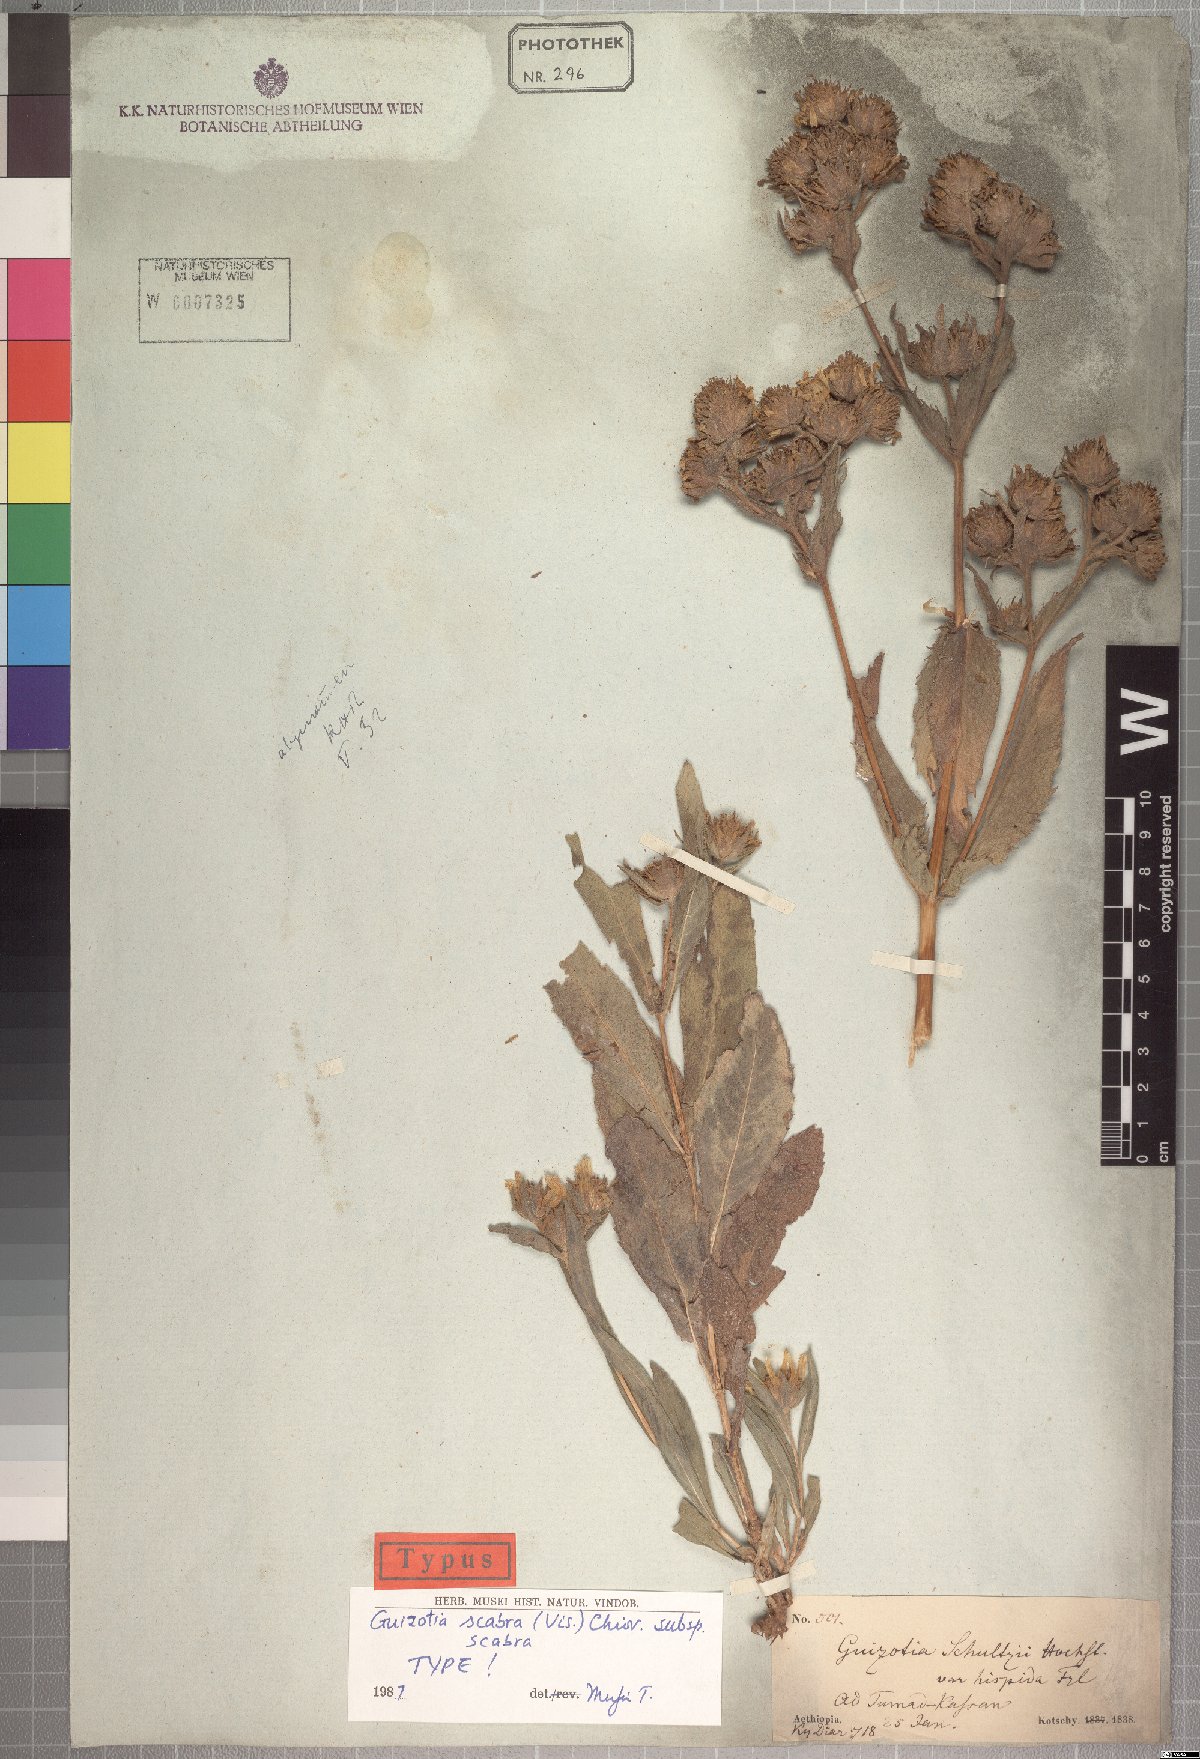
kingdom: Plantae
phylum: Tracheophyta
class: Magnoliopsida
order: Asterales
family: Asteraceae
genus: Guizotia
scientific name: Guizotia scabra
